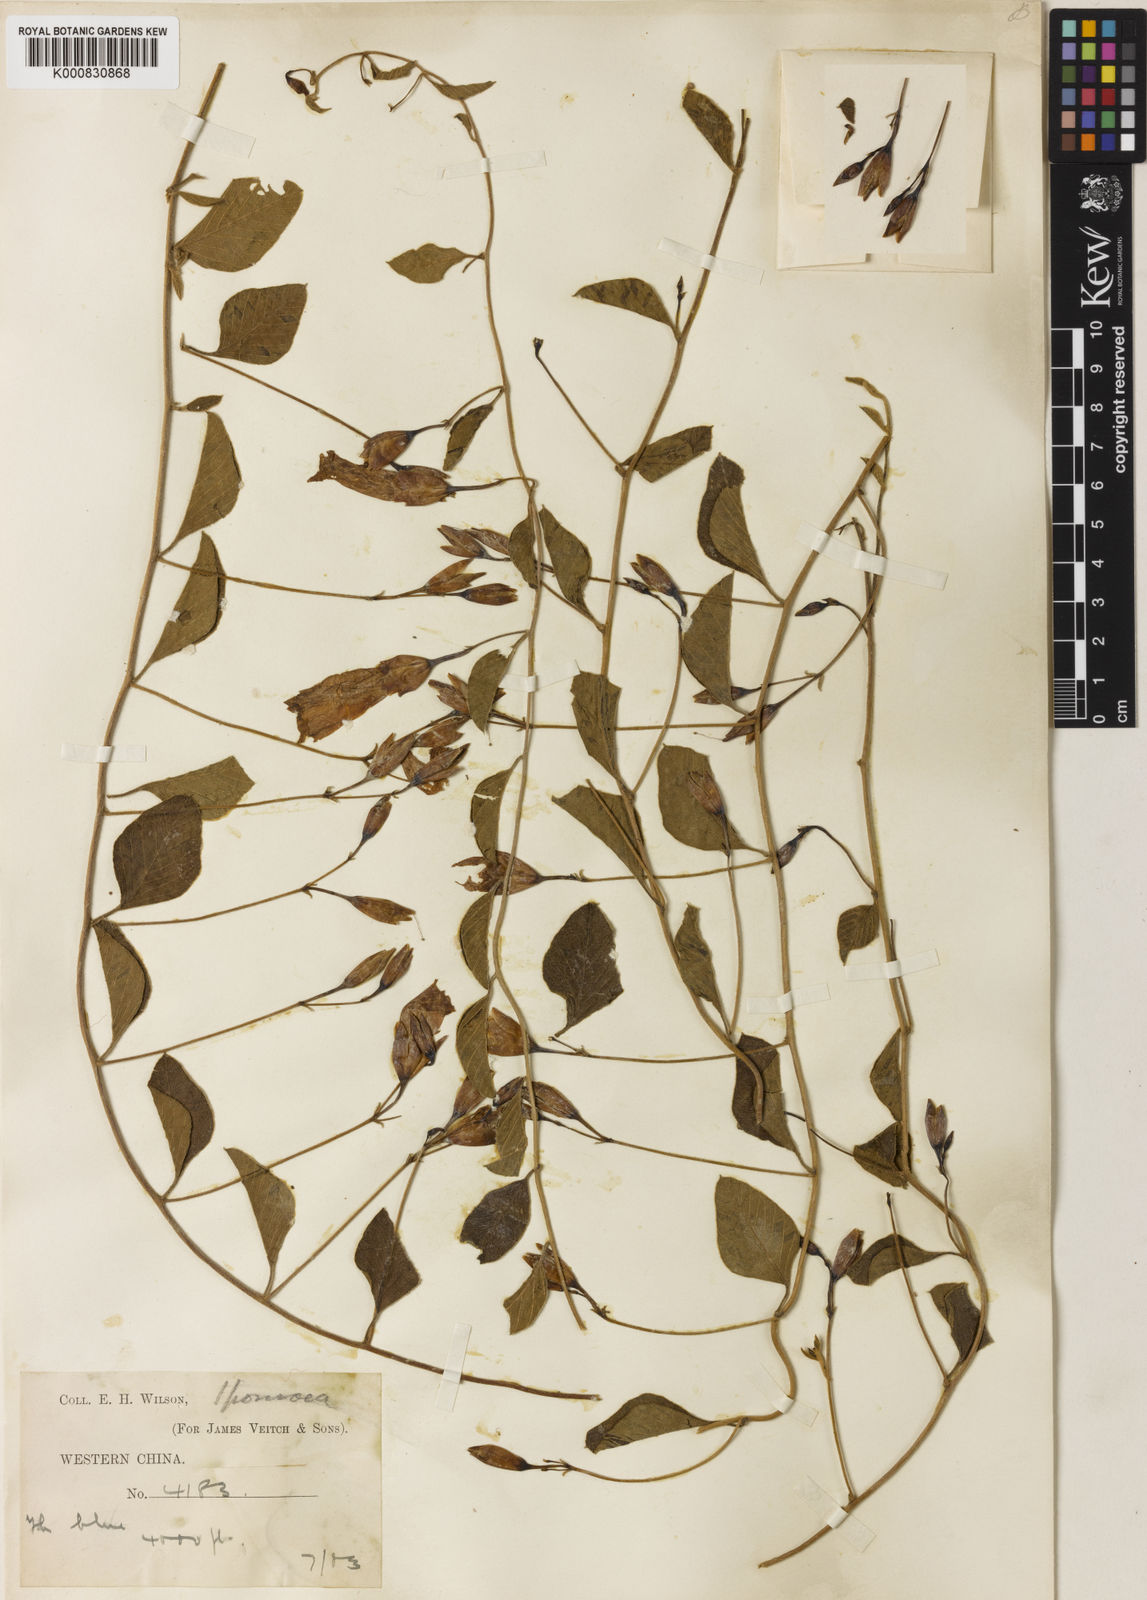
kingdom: Plantae
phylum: Tracheophyta
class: Magnoliopsida
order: Solanales
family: Convolvulaceae
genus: Merremia
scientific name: Merremia yunnanensis
